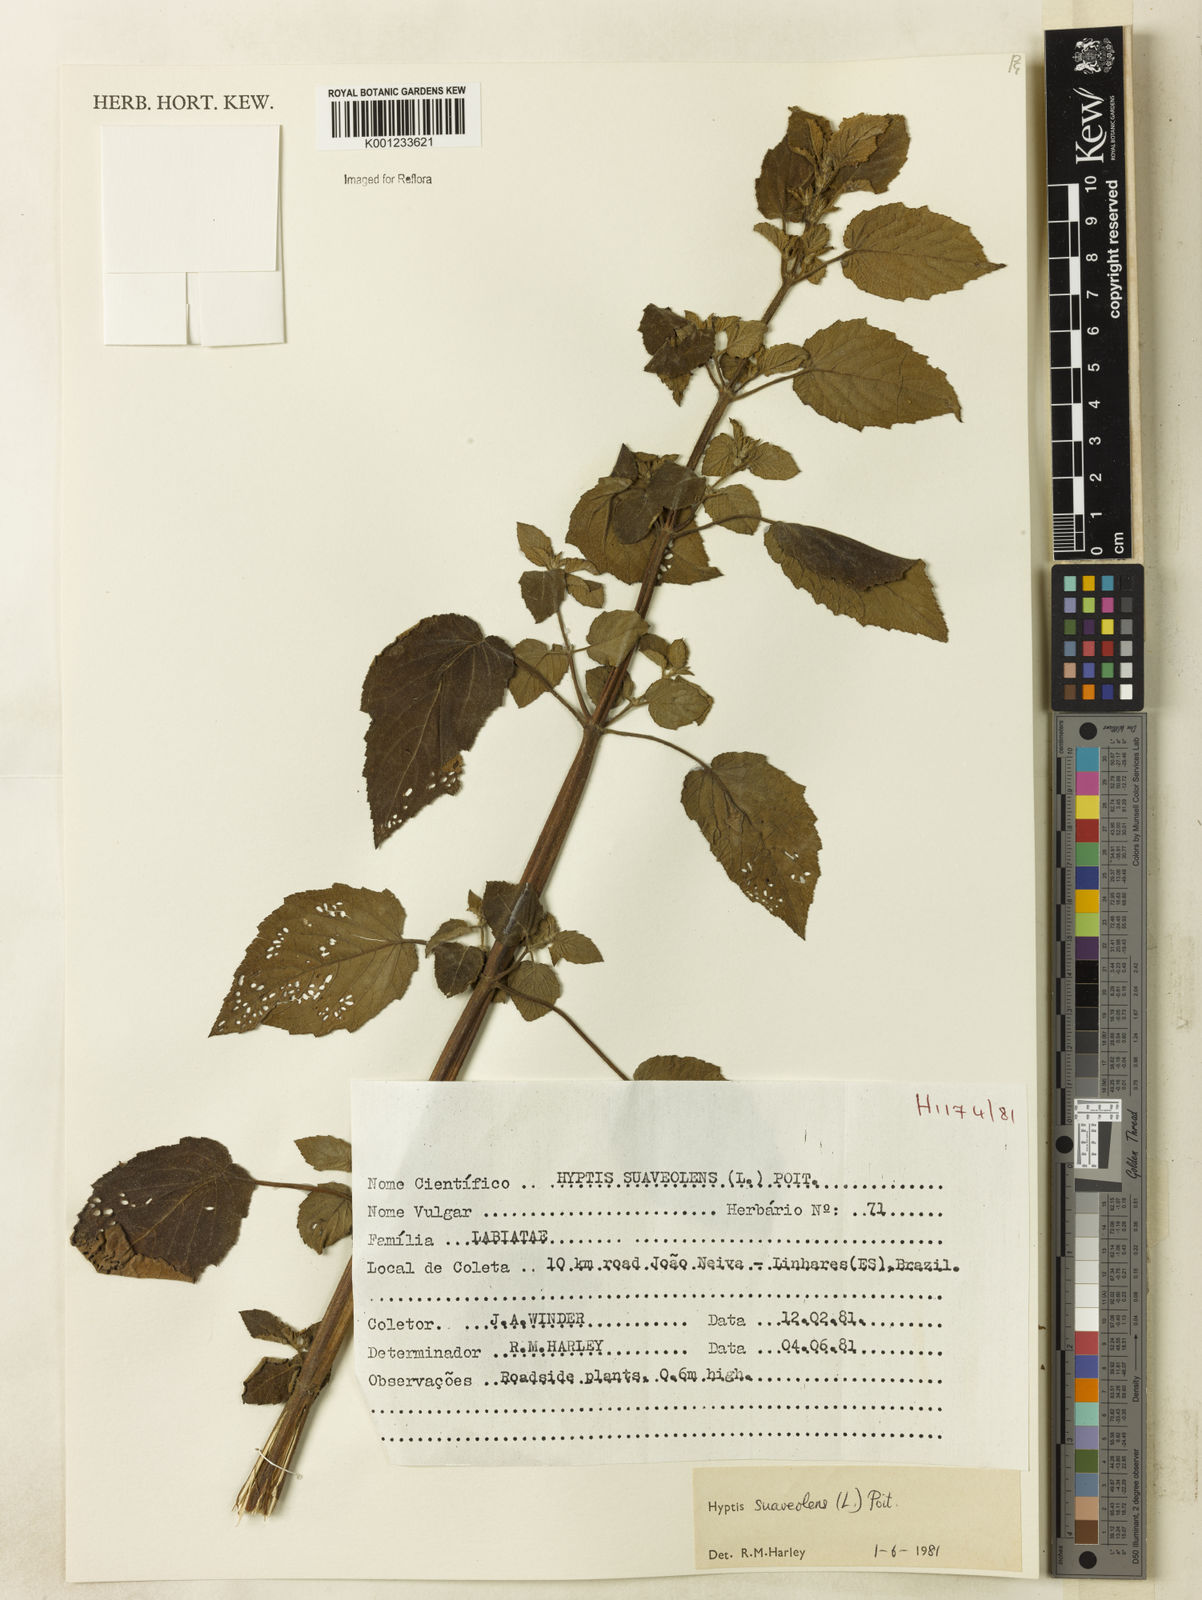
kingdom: Plantae
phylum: Tracheophyta
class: Magnoliopsida
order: Lamiales
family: Lamiaceae
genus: Mesosphaerum
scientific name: Mesosphaerum suaveolens
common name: Pignut
